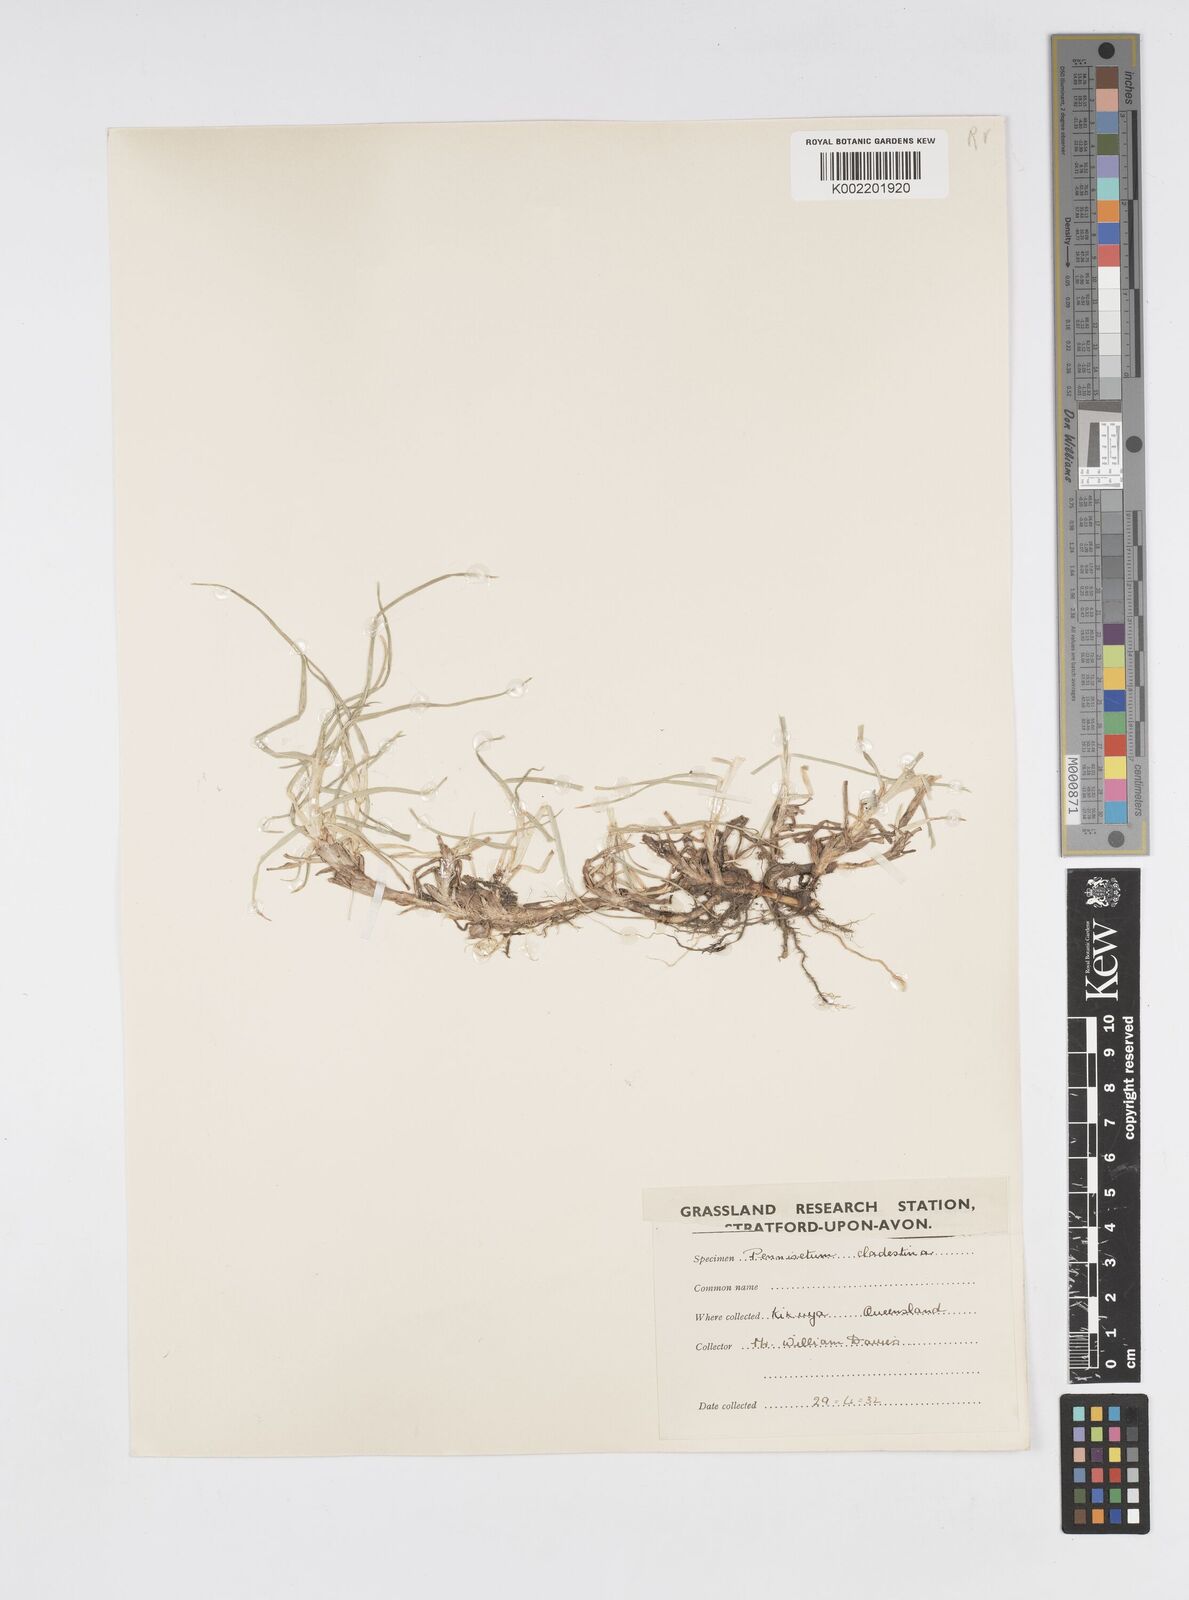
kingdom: Plantae
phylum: Tracheophyta
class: Liliopsida
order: Poales
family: Poaceae
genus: Cenchrus
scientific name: Cenchrus clandestinus
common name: Kikuyugrass
